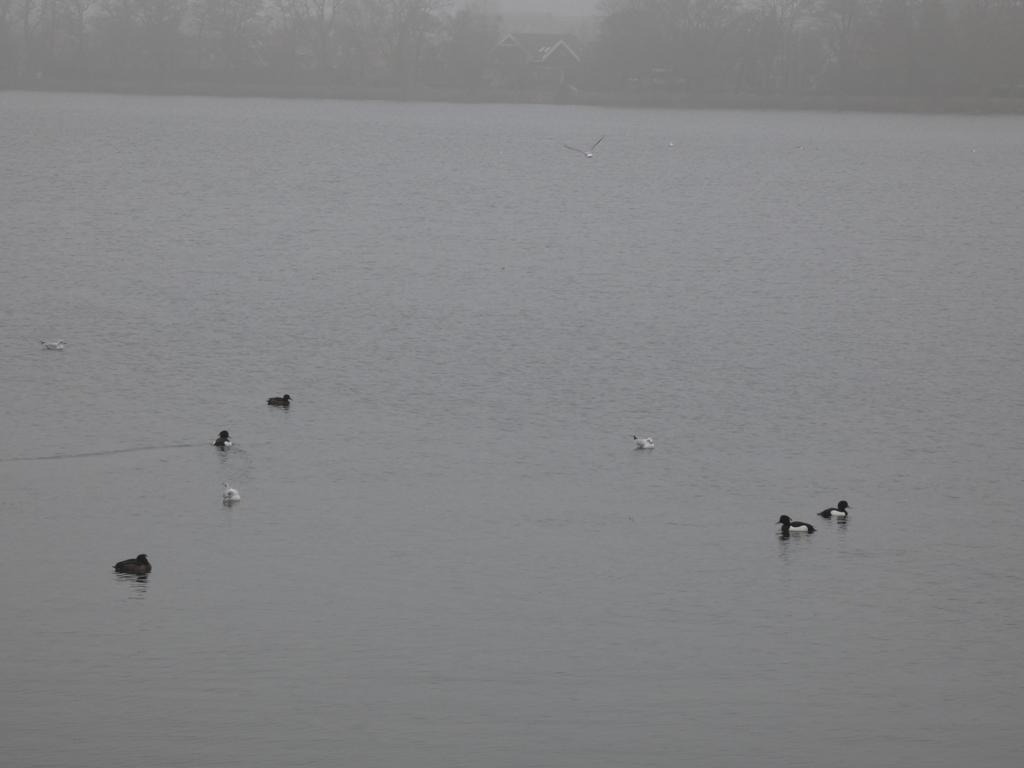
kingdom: Animalia
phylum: Chordata
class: Aves
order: Charadriiformes
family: Laridae
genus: Chroicocephalus
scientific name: Chroicocephalus ridibundus
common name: Hættemåge
